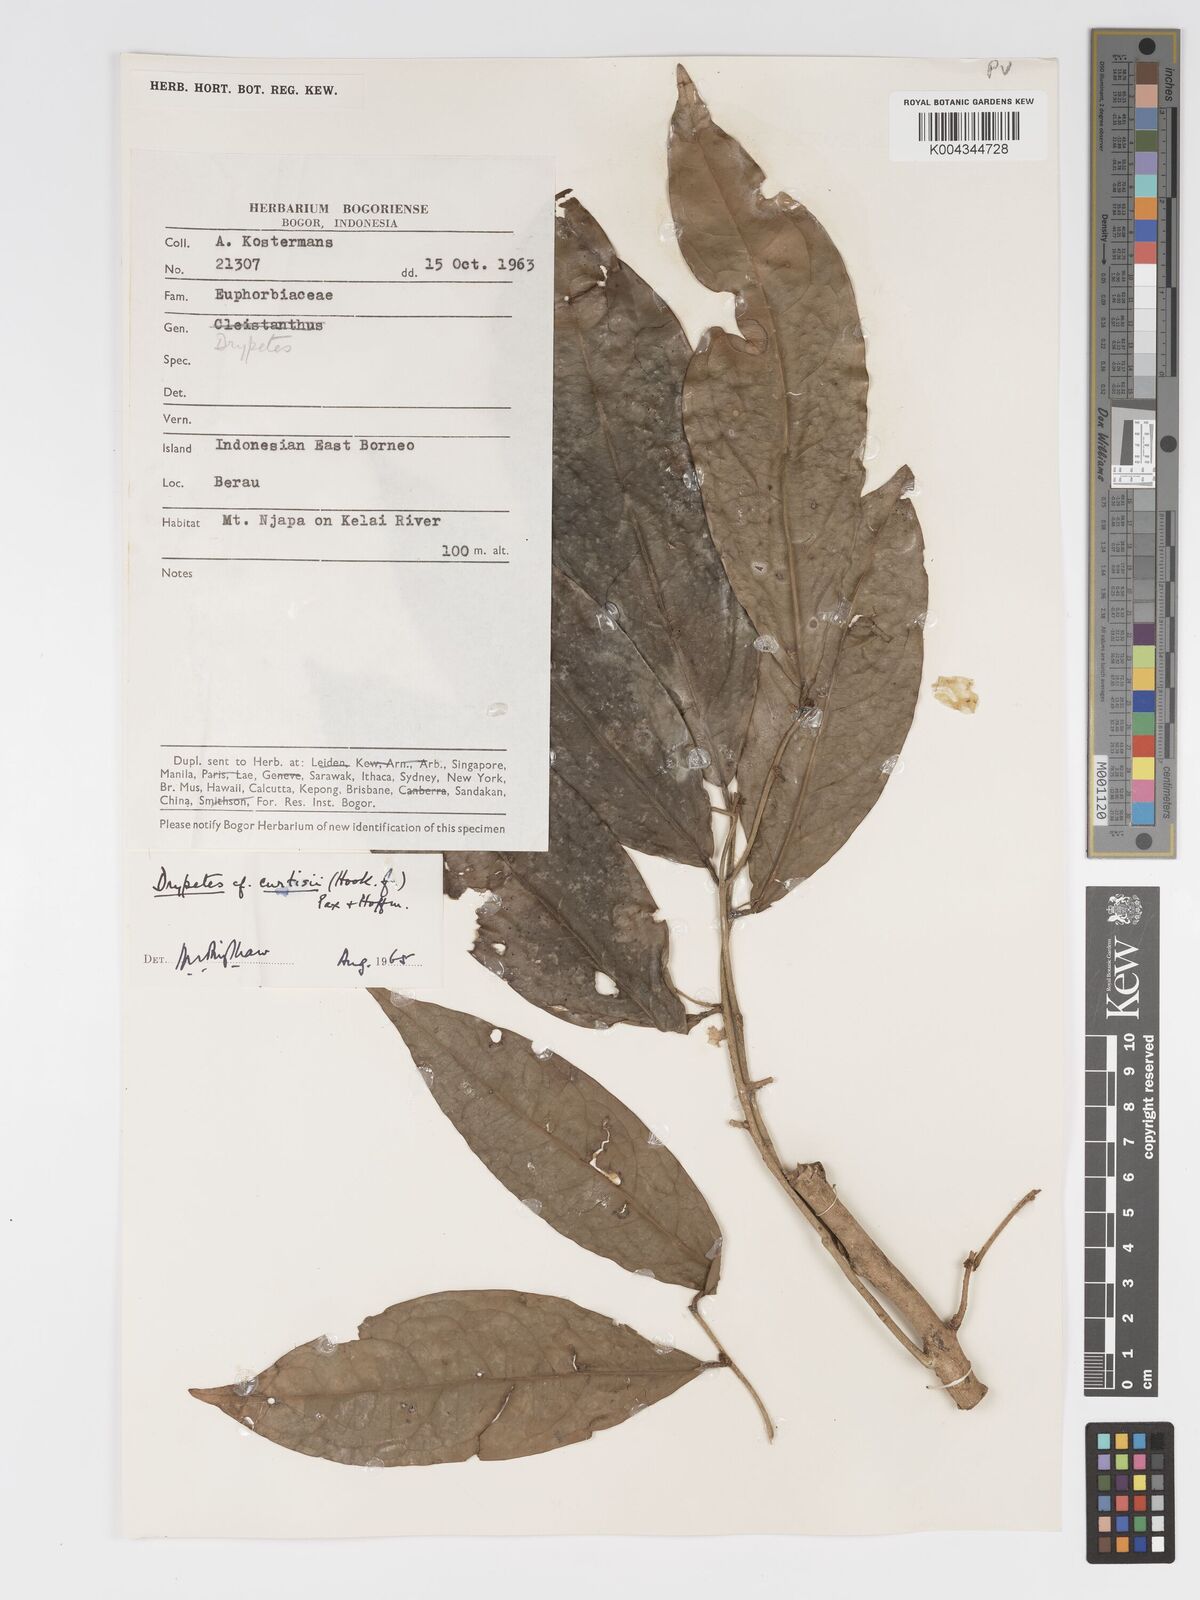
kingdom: Plantae
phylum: Tracheophyta
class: Magnoliopsida
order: Malpighiales
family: Putranjivaceae
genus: Drypetes
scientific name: Drypetes curtisii
